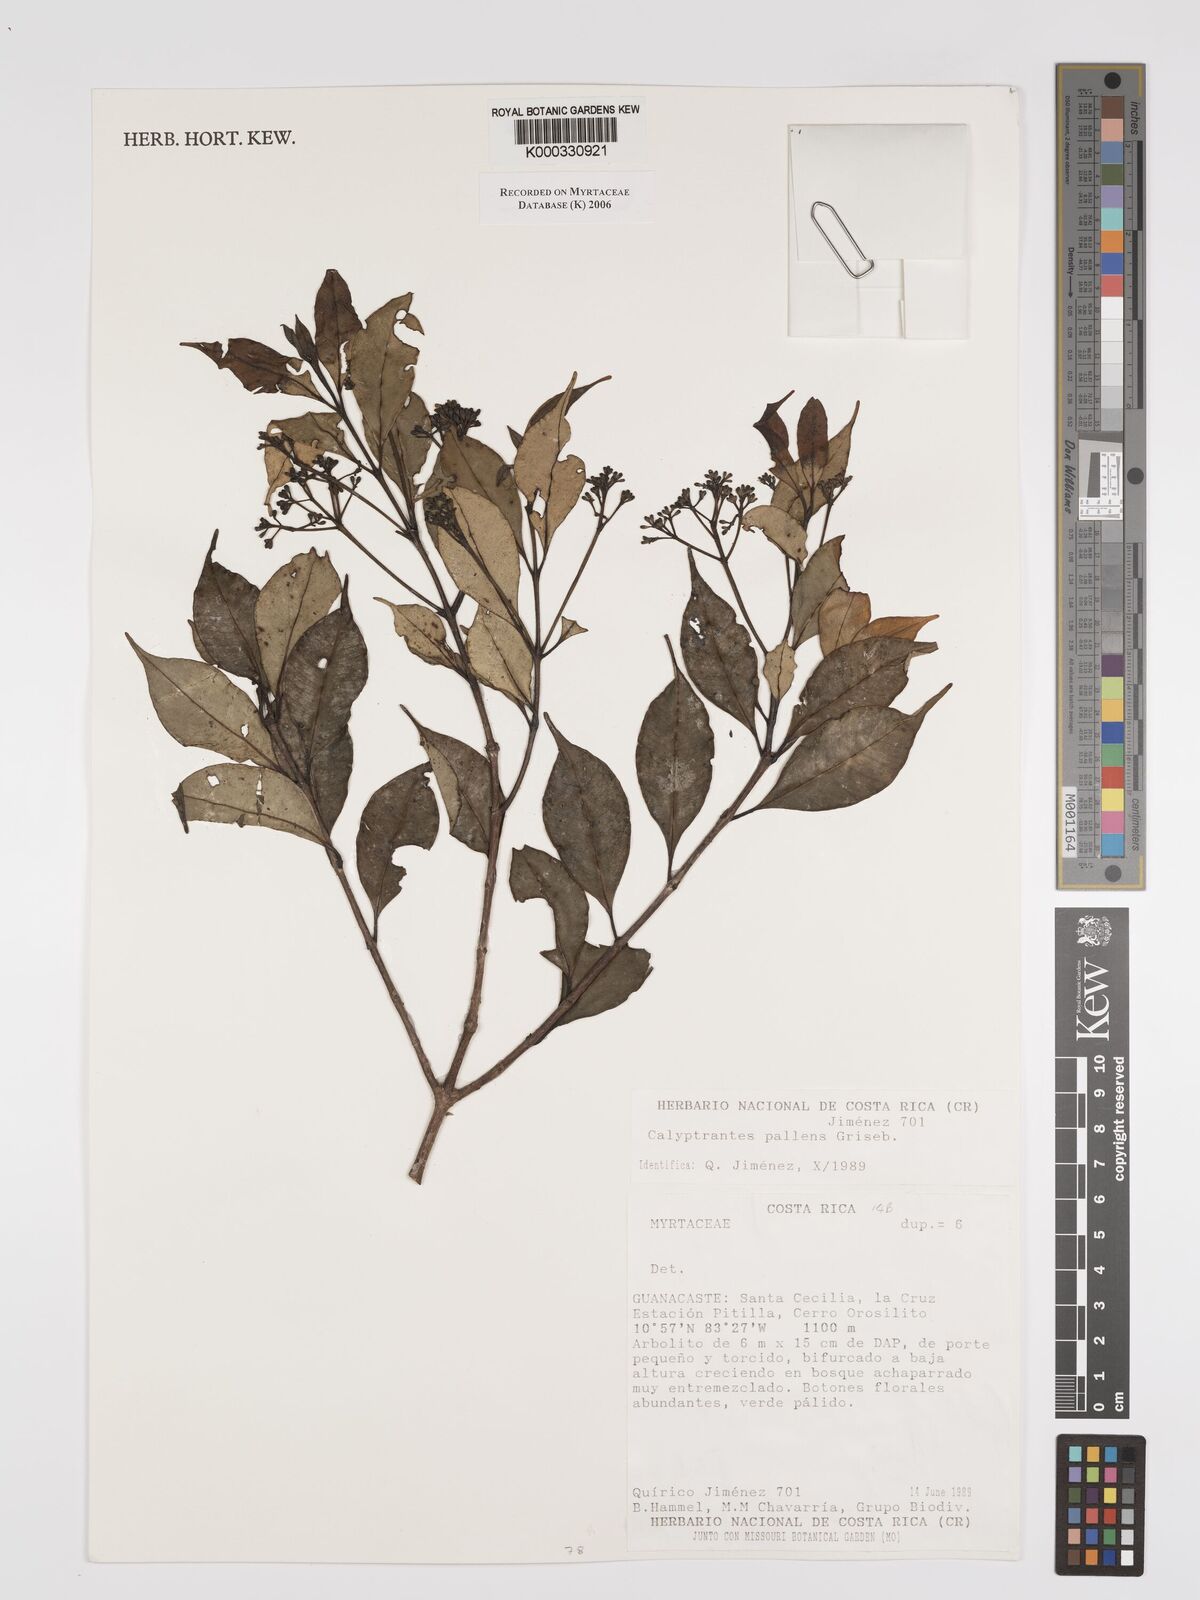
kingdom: Plantae
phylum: Tracheophyta
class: Magnoliopsida
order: Myrtales
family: Myrtaceae
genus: Myrcia
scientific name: Myrcia neopallens
